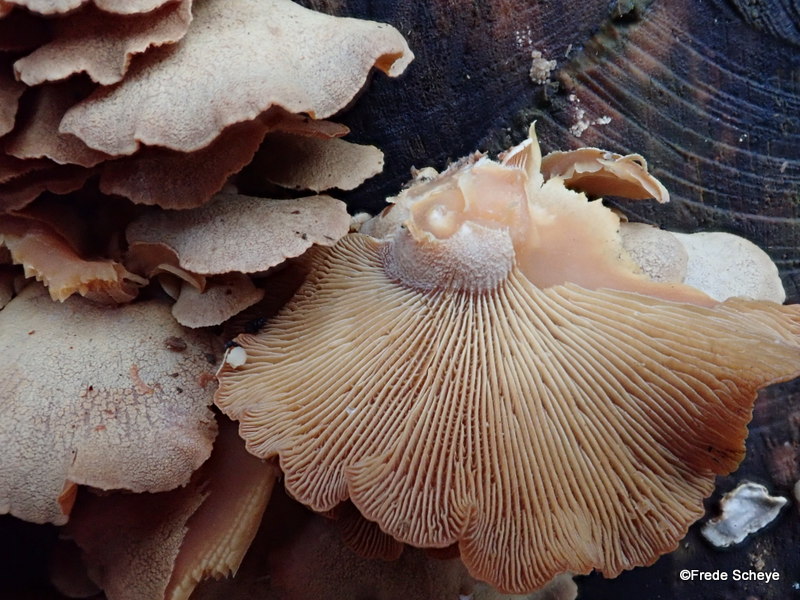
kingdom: Fungi
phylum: Basidiomycota
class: Agaricomycetes
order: Agaricales
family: Mycenaceae
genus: Panellus
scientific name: Panellus stipticus
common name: kliddet epaulethat
